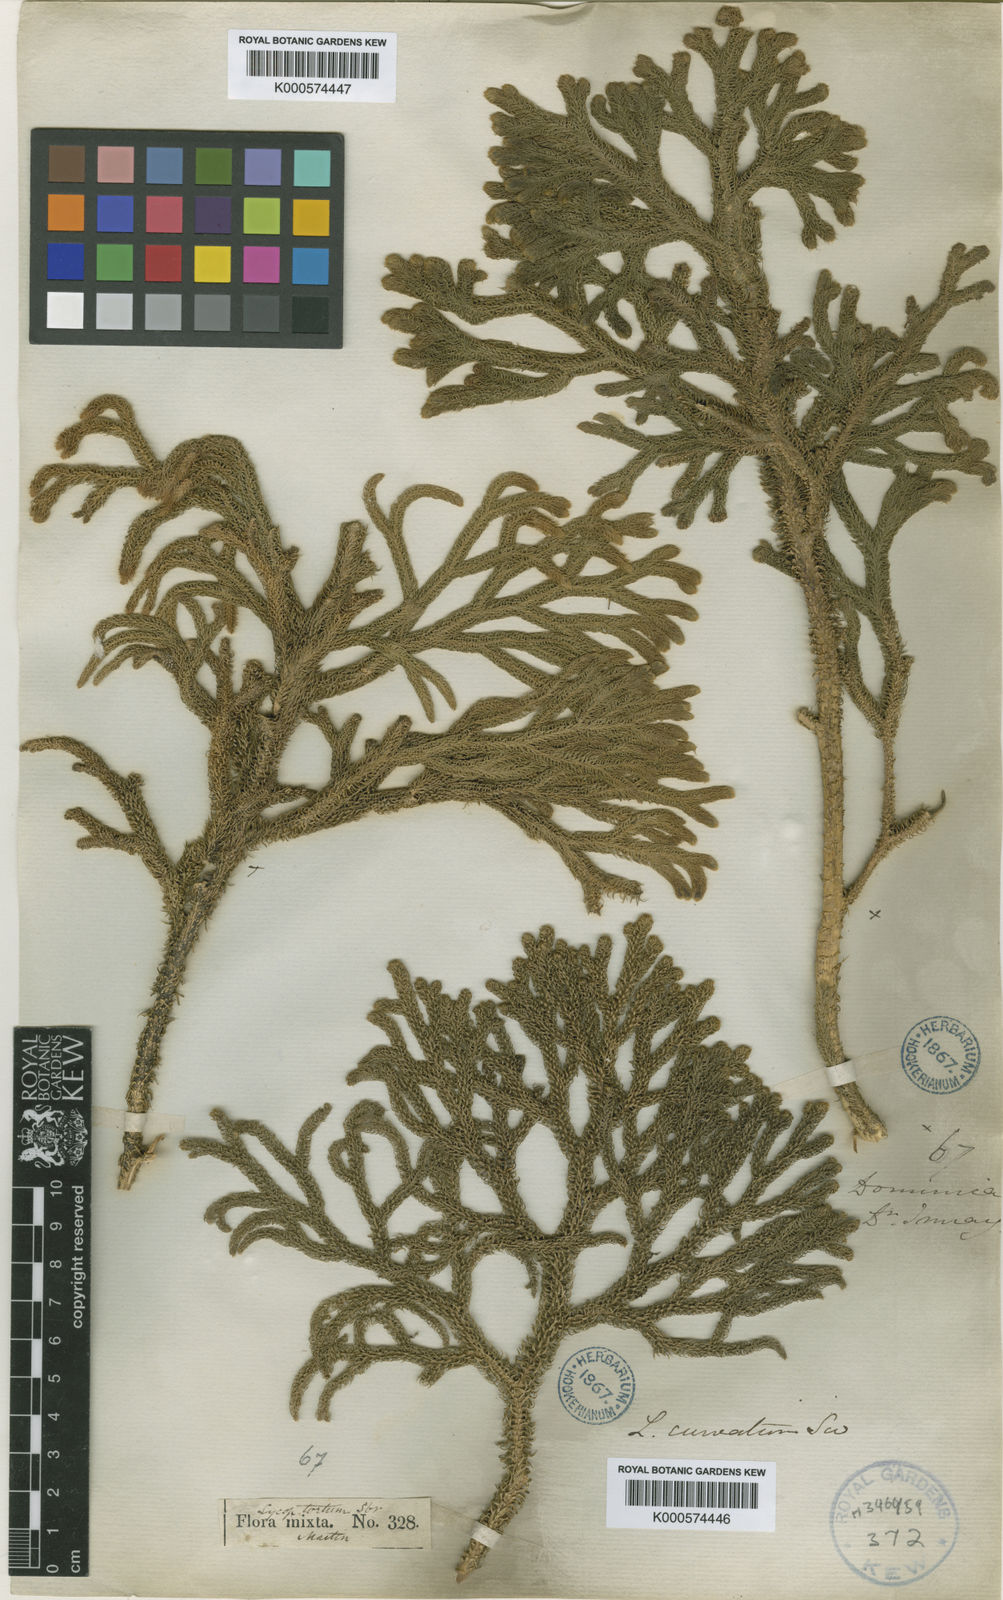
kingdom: Plantae
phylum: Tracheophyta
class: Lycopodiopsida
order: Lycopodiales
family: Lycopodiaceae
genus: Palhinhaea
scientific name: Palhinhaea torta
